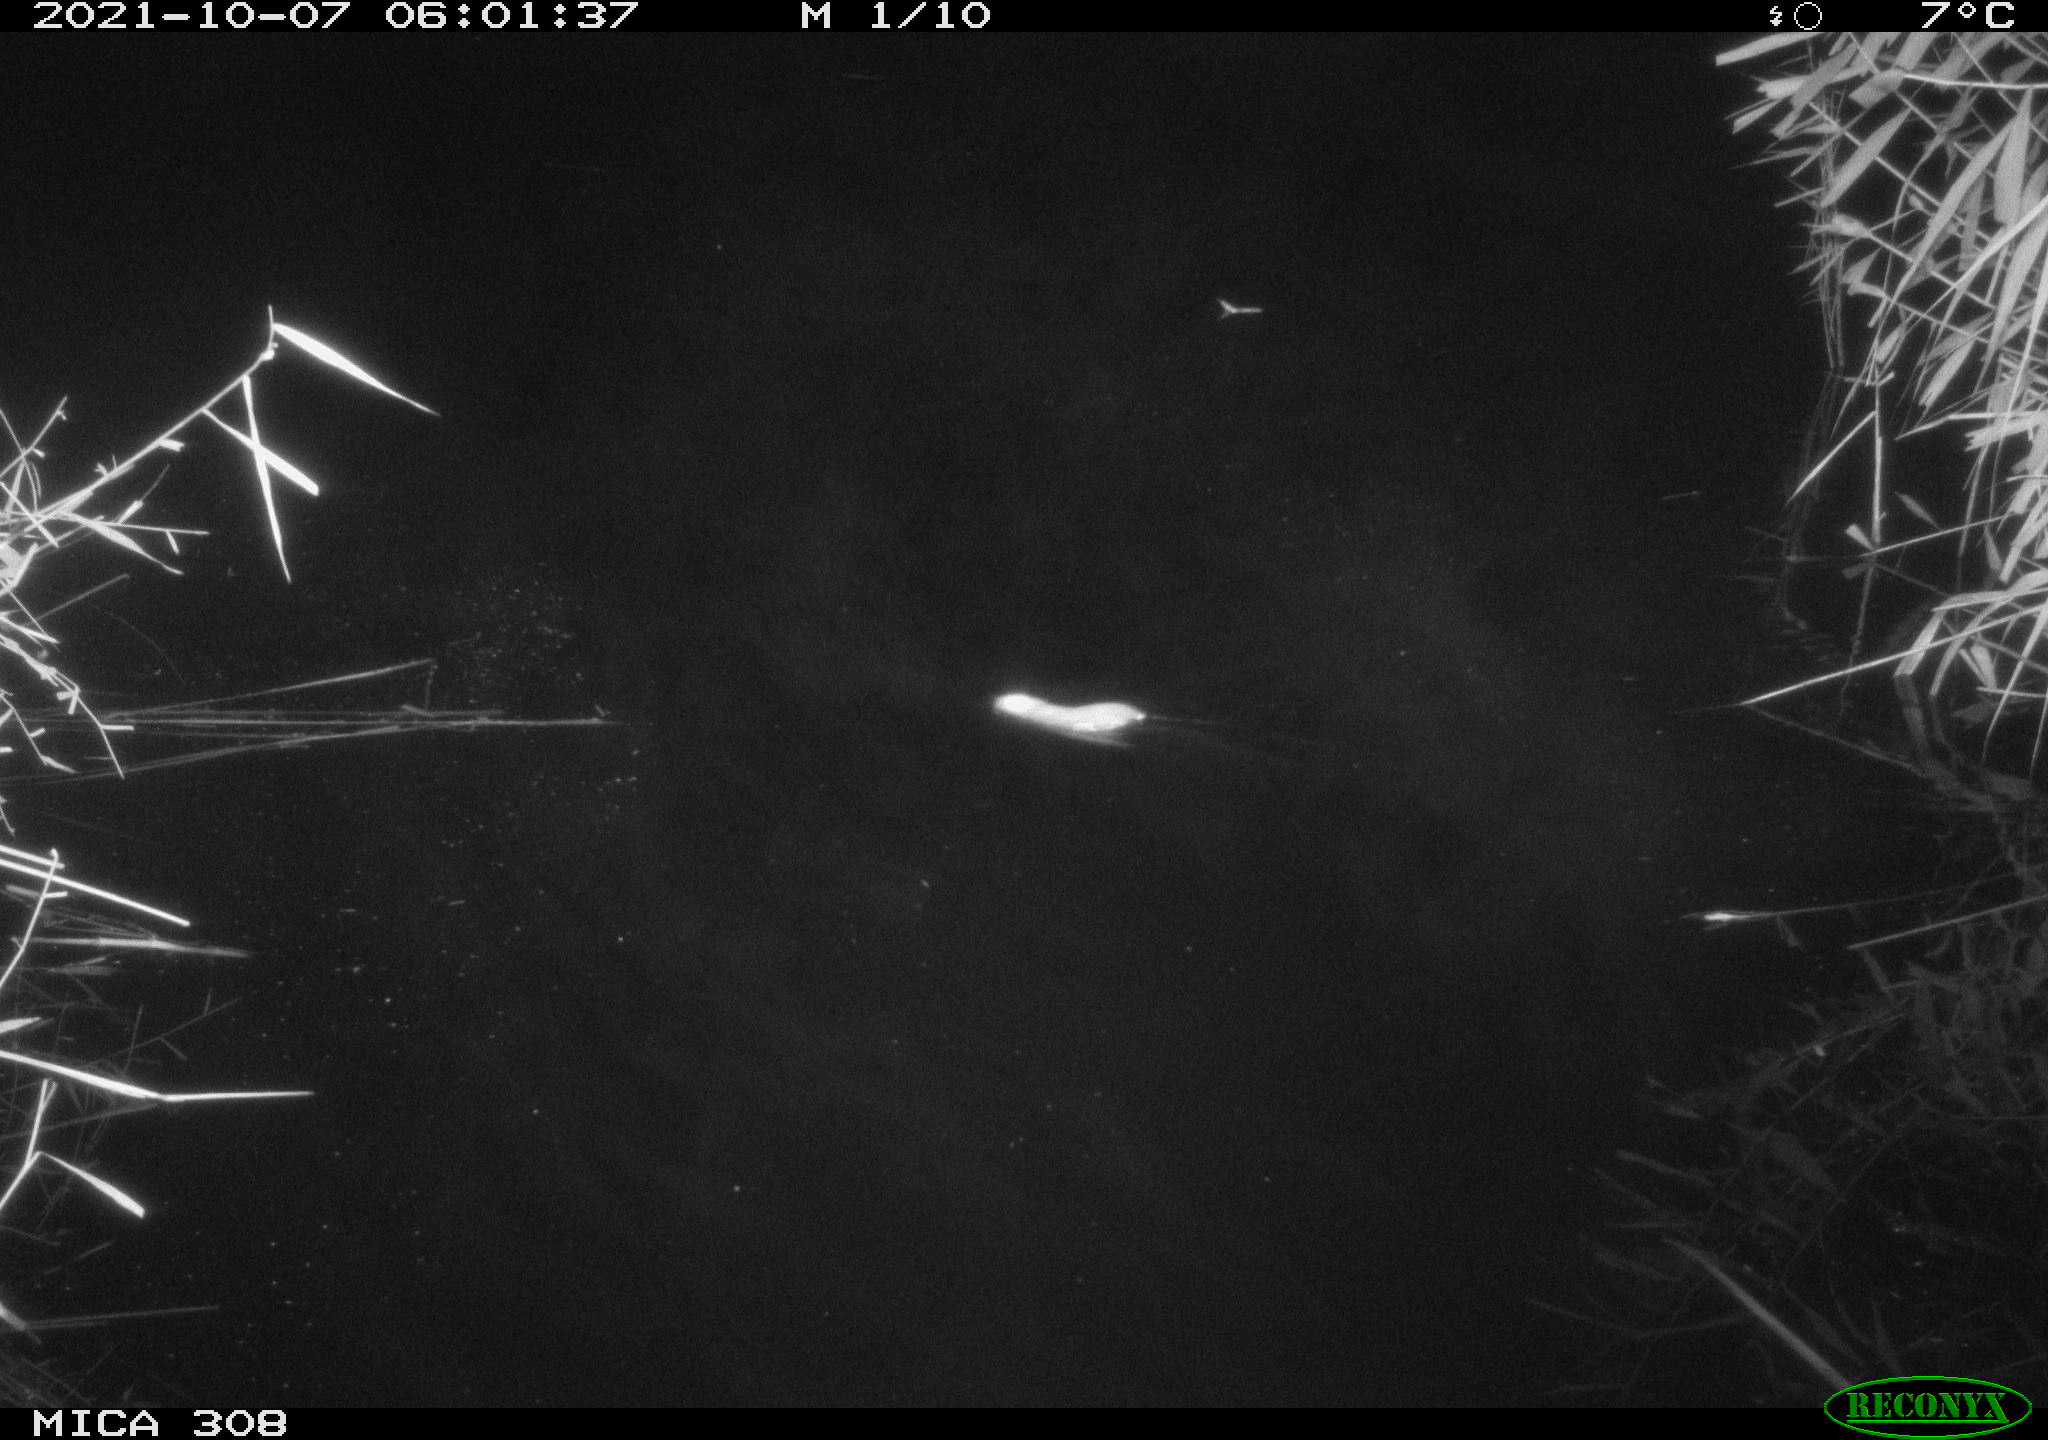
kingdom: Animalia
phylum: Chordata
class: Mammalia
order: Rodentia
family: Muridae
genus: Rattus
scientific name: Rattus norvegicus
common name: Brown rat
